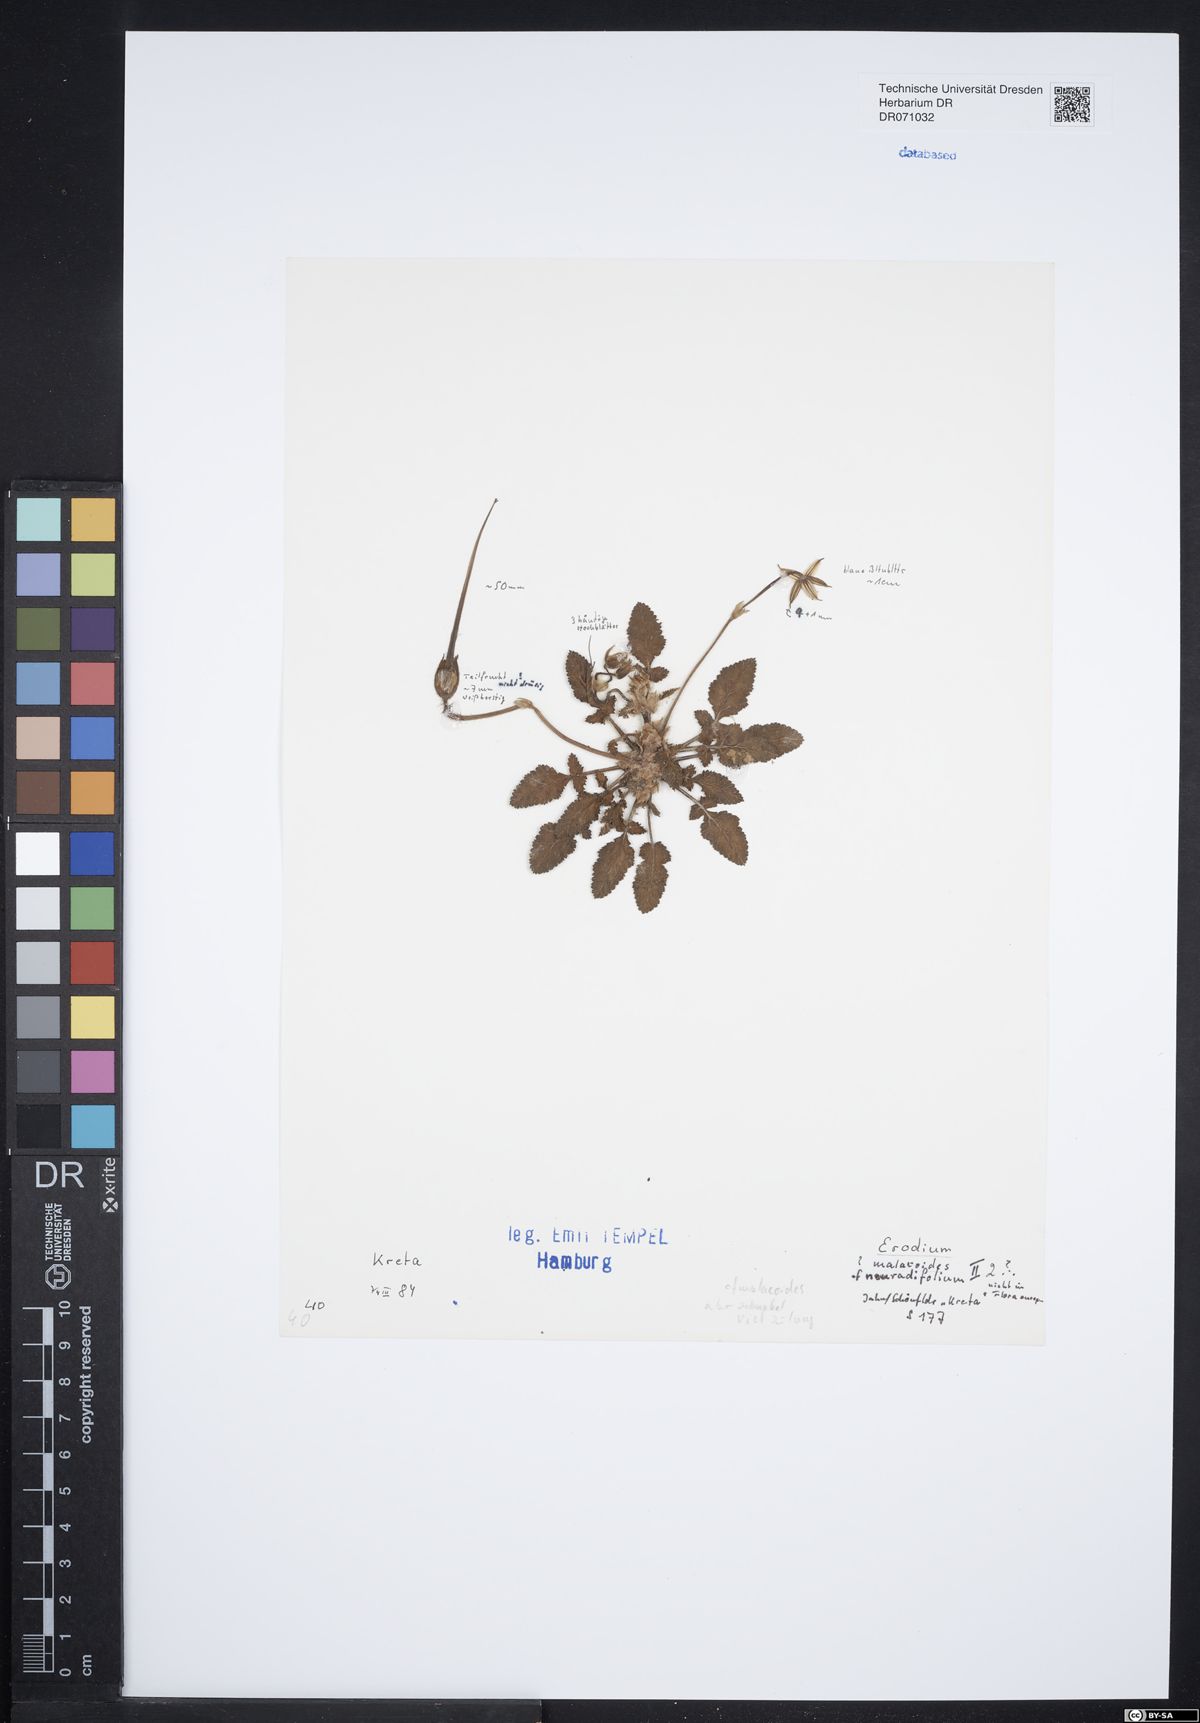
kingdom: Plantae
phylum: Tracheophyta
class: Magnoliopsida
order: Geraniales
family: Geraniaceae
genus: Erodium
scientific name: Erodium malacoides
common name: Soft stork's-bill
